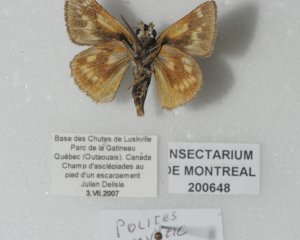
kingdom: Animalia
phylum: Arthropoda
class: Insecta
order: Lepidoptera
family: Hesperiidae
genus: Polites
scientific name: Polites
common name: Long Dash Skipper
